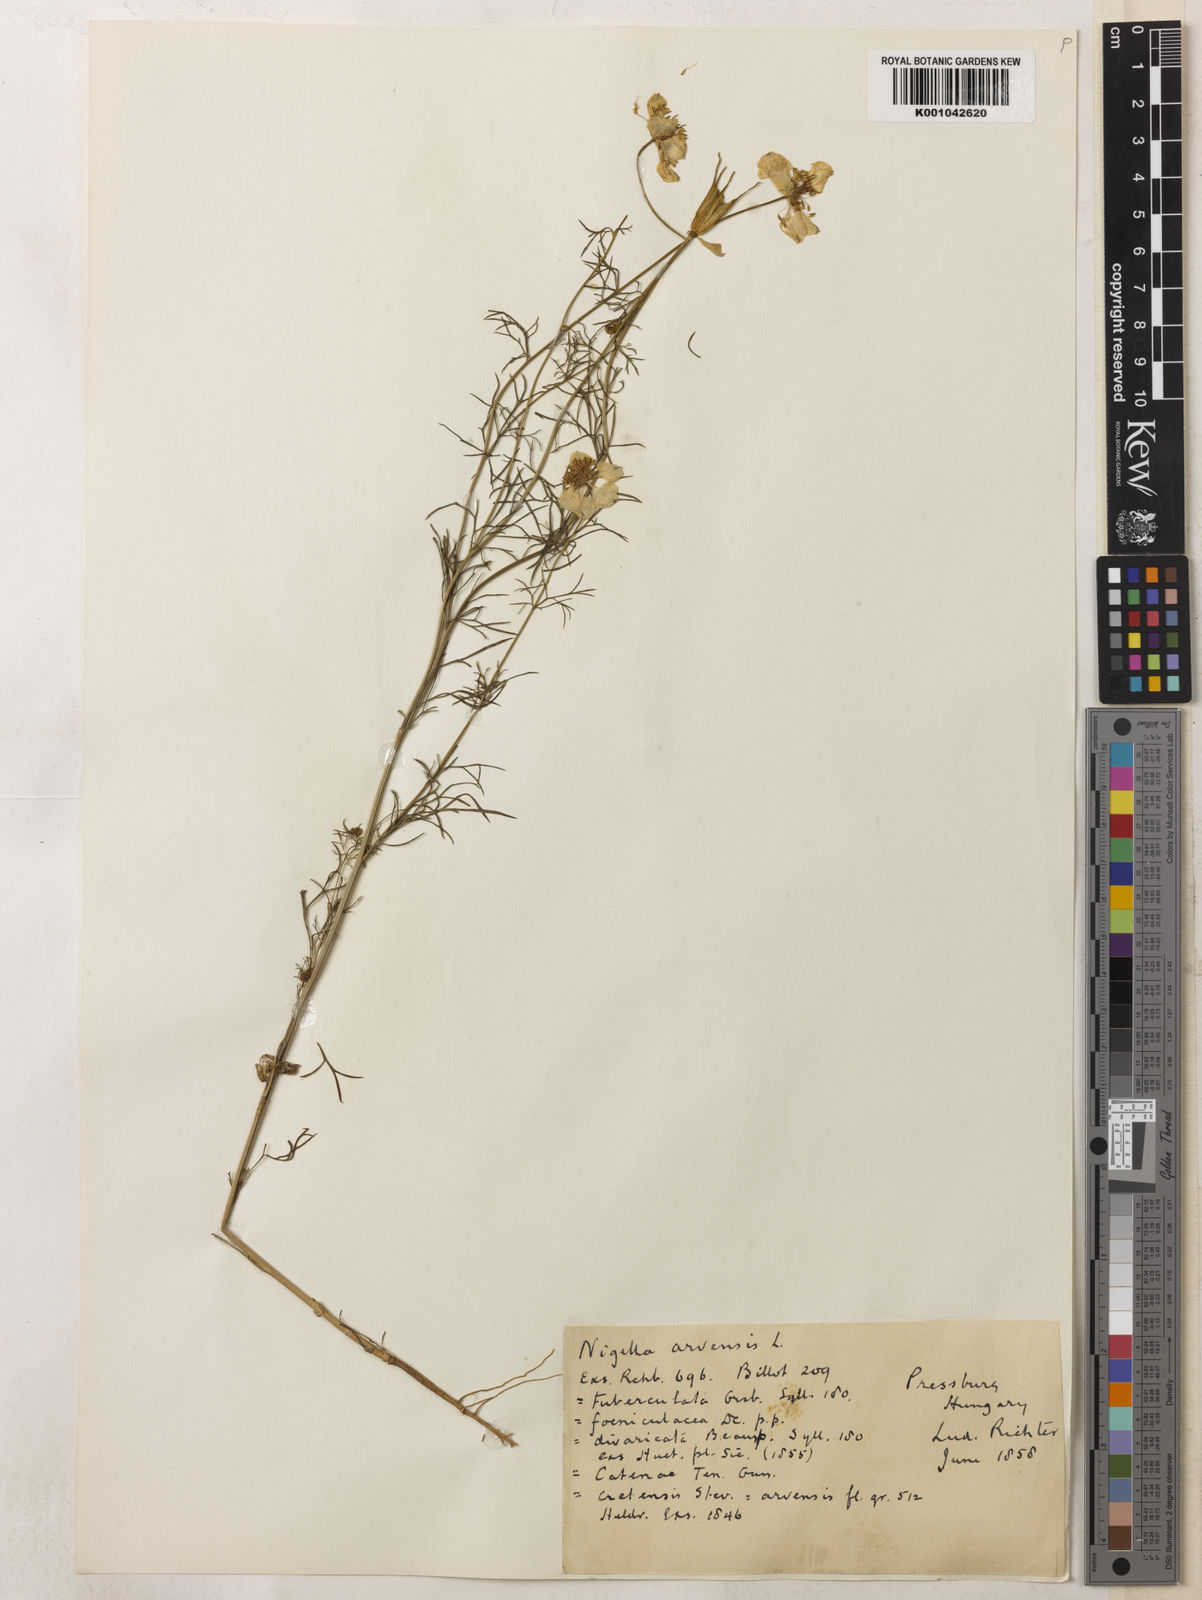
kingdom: Plantae
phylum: Tracheophyta
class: Magnoliopsida
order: Ranunculales
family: Ranunculaceae
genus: Nigella
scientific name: Nigella arvensis
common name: Wild fennel-flower
